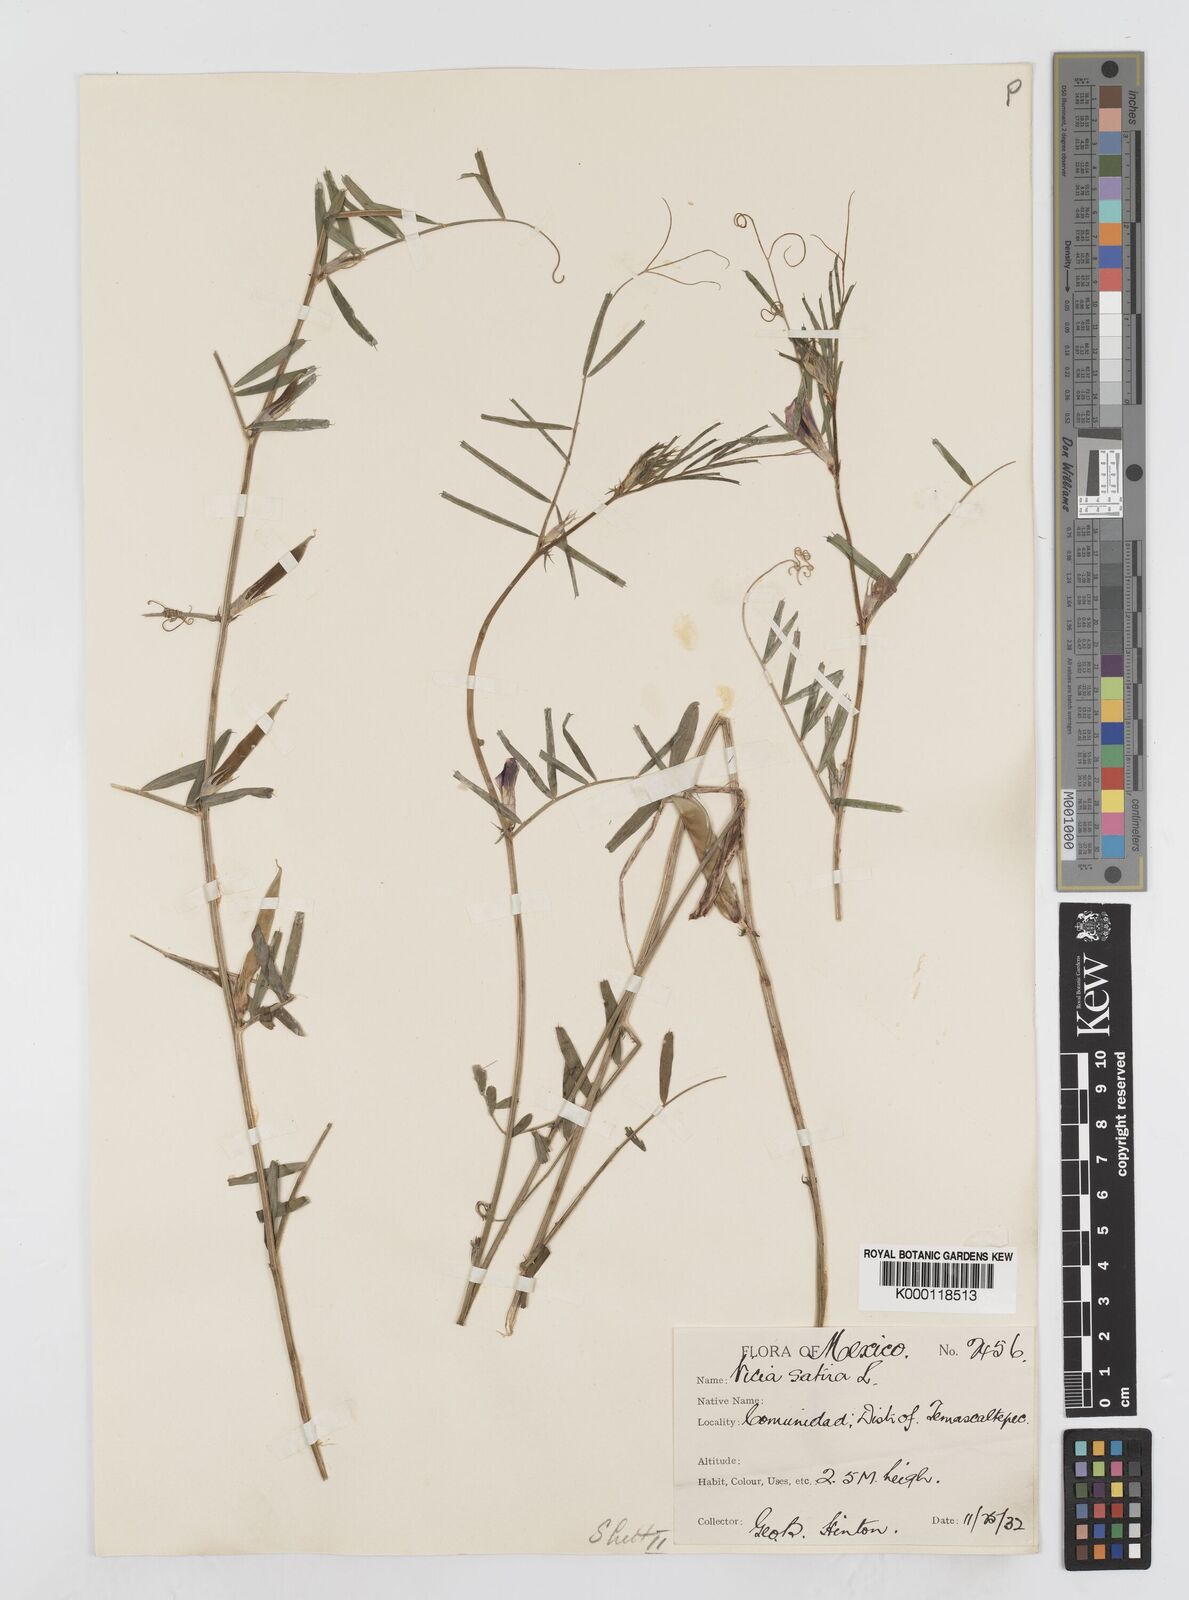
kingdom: Plantae
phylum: Tracheophyta
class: Magnoliopsida
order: Fabales
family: Fabaceae
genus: Vicia
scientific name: Vicia sativa
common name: Garden vetch
